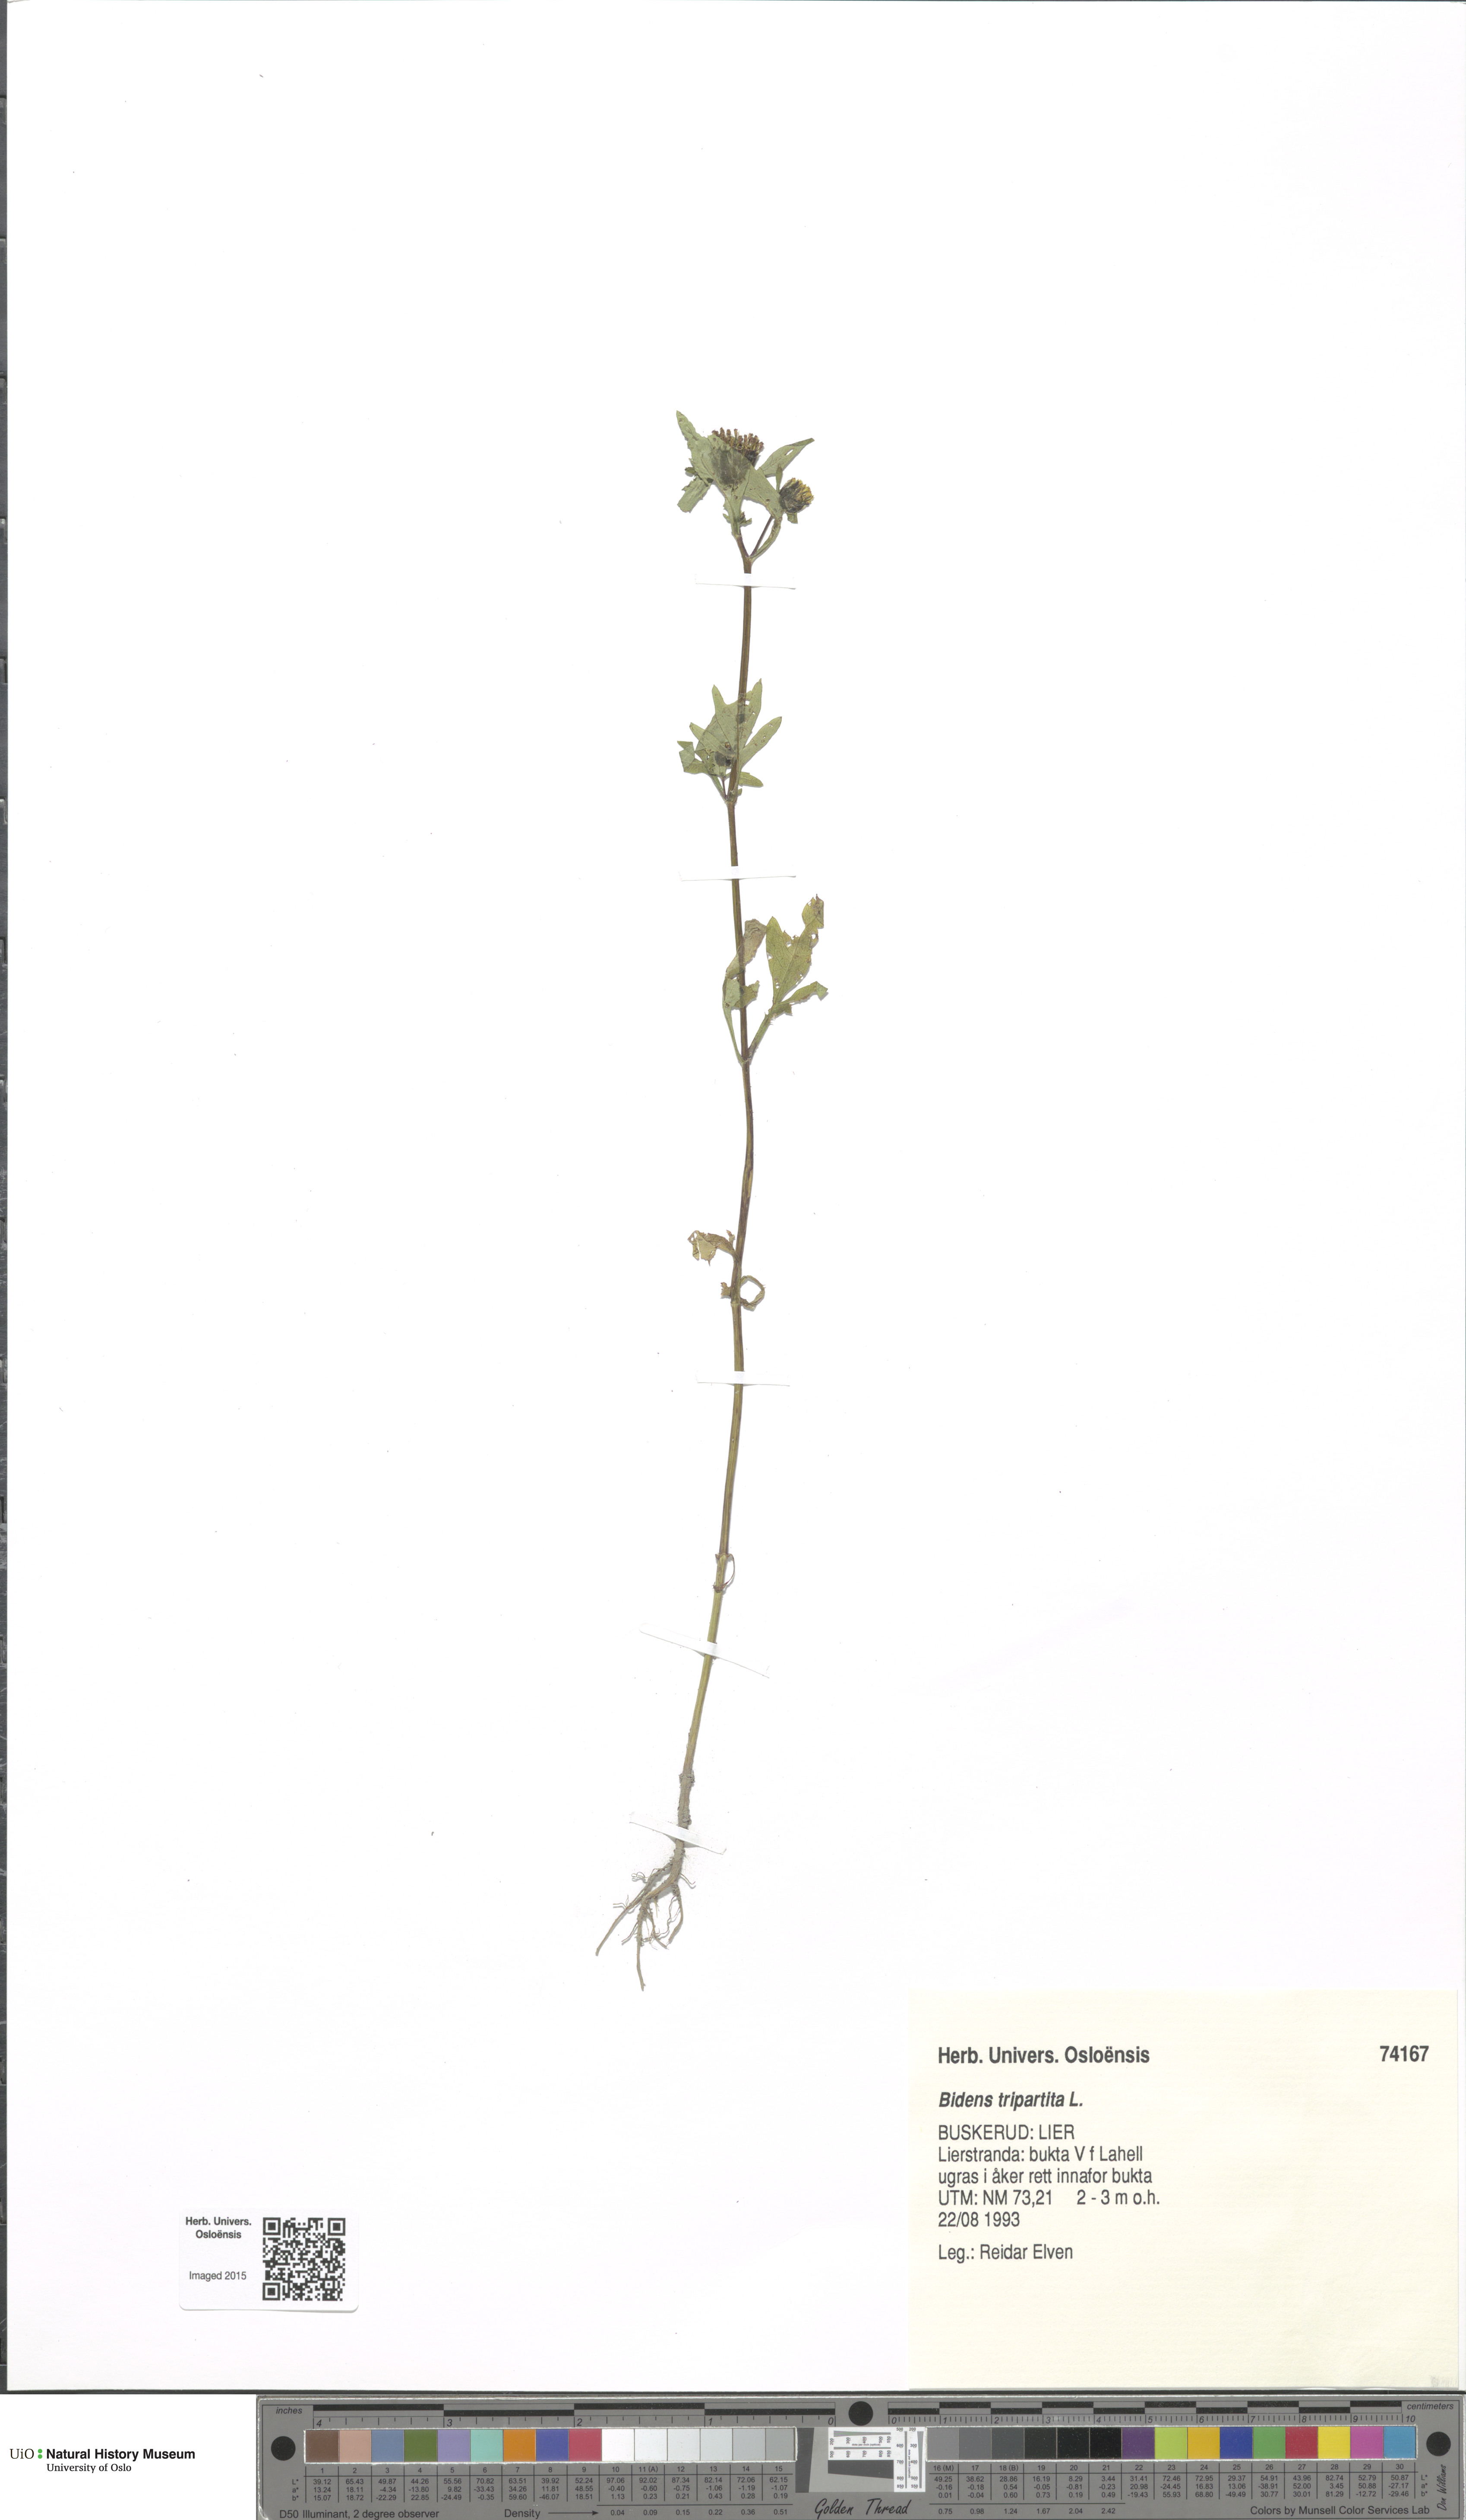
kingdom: Plantae
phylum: Tracheophyta
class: Magnoliopsida
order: Asterales
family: Asteraceae
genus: Bidens
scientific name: Bidens tripartita
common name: Trifid bur-marigold
